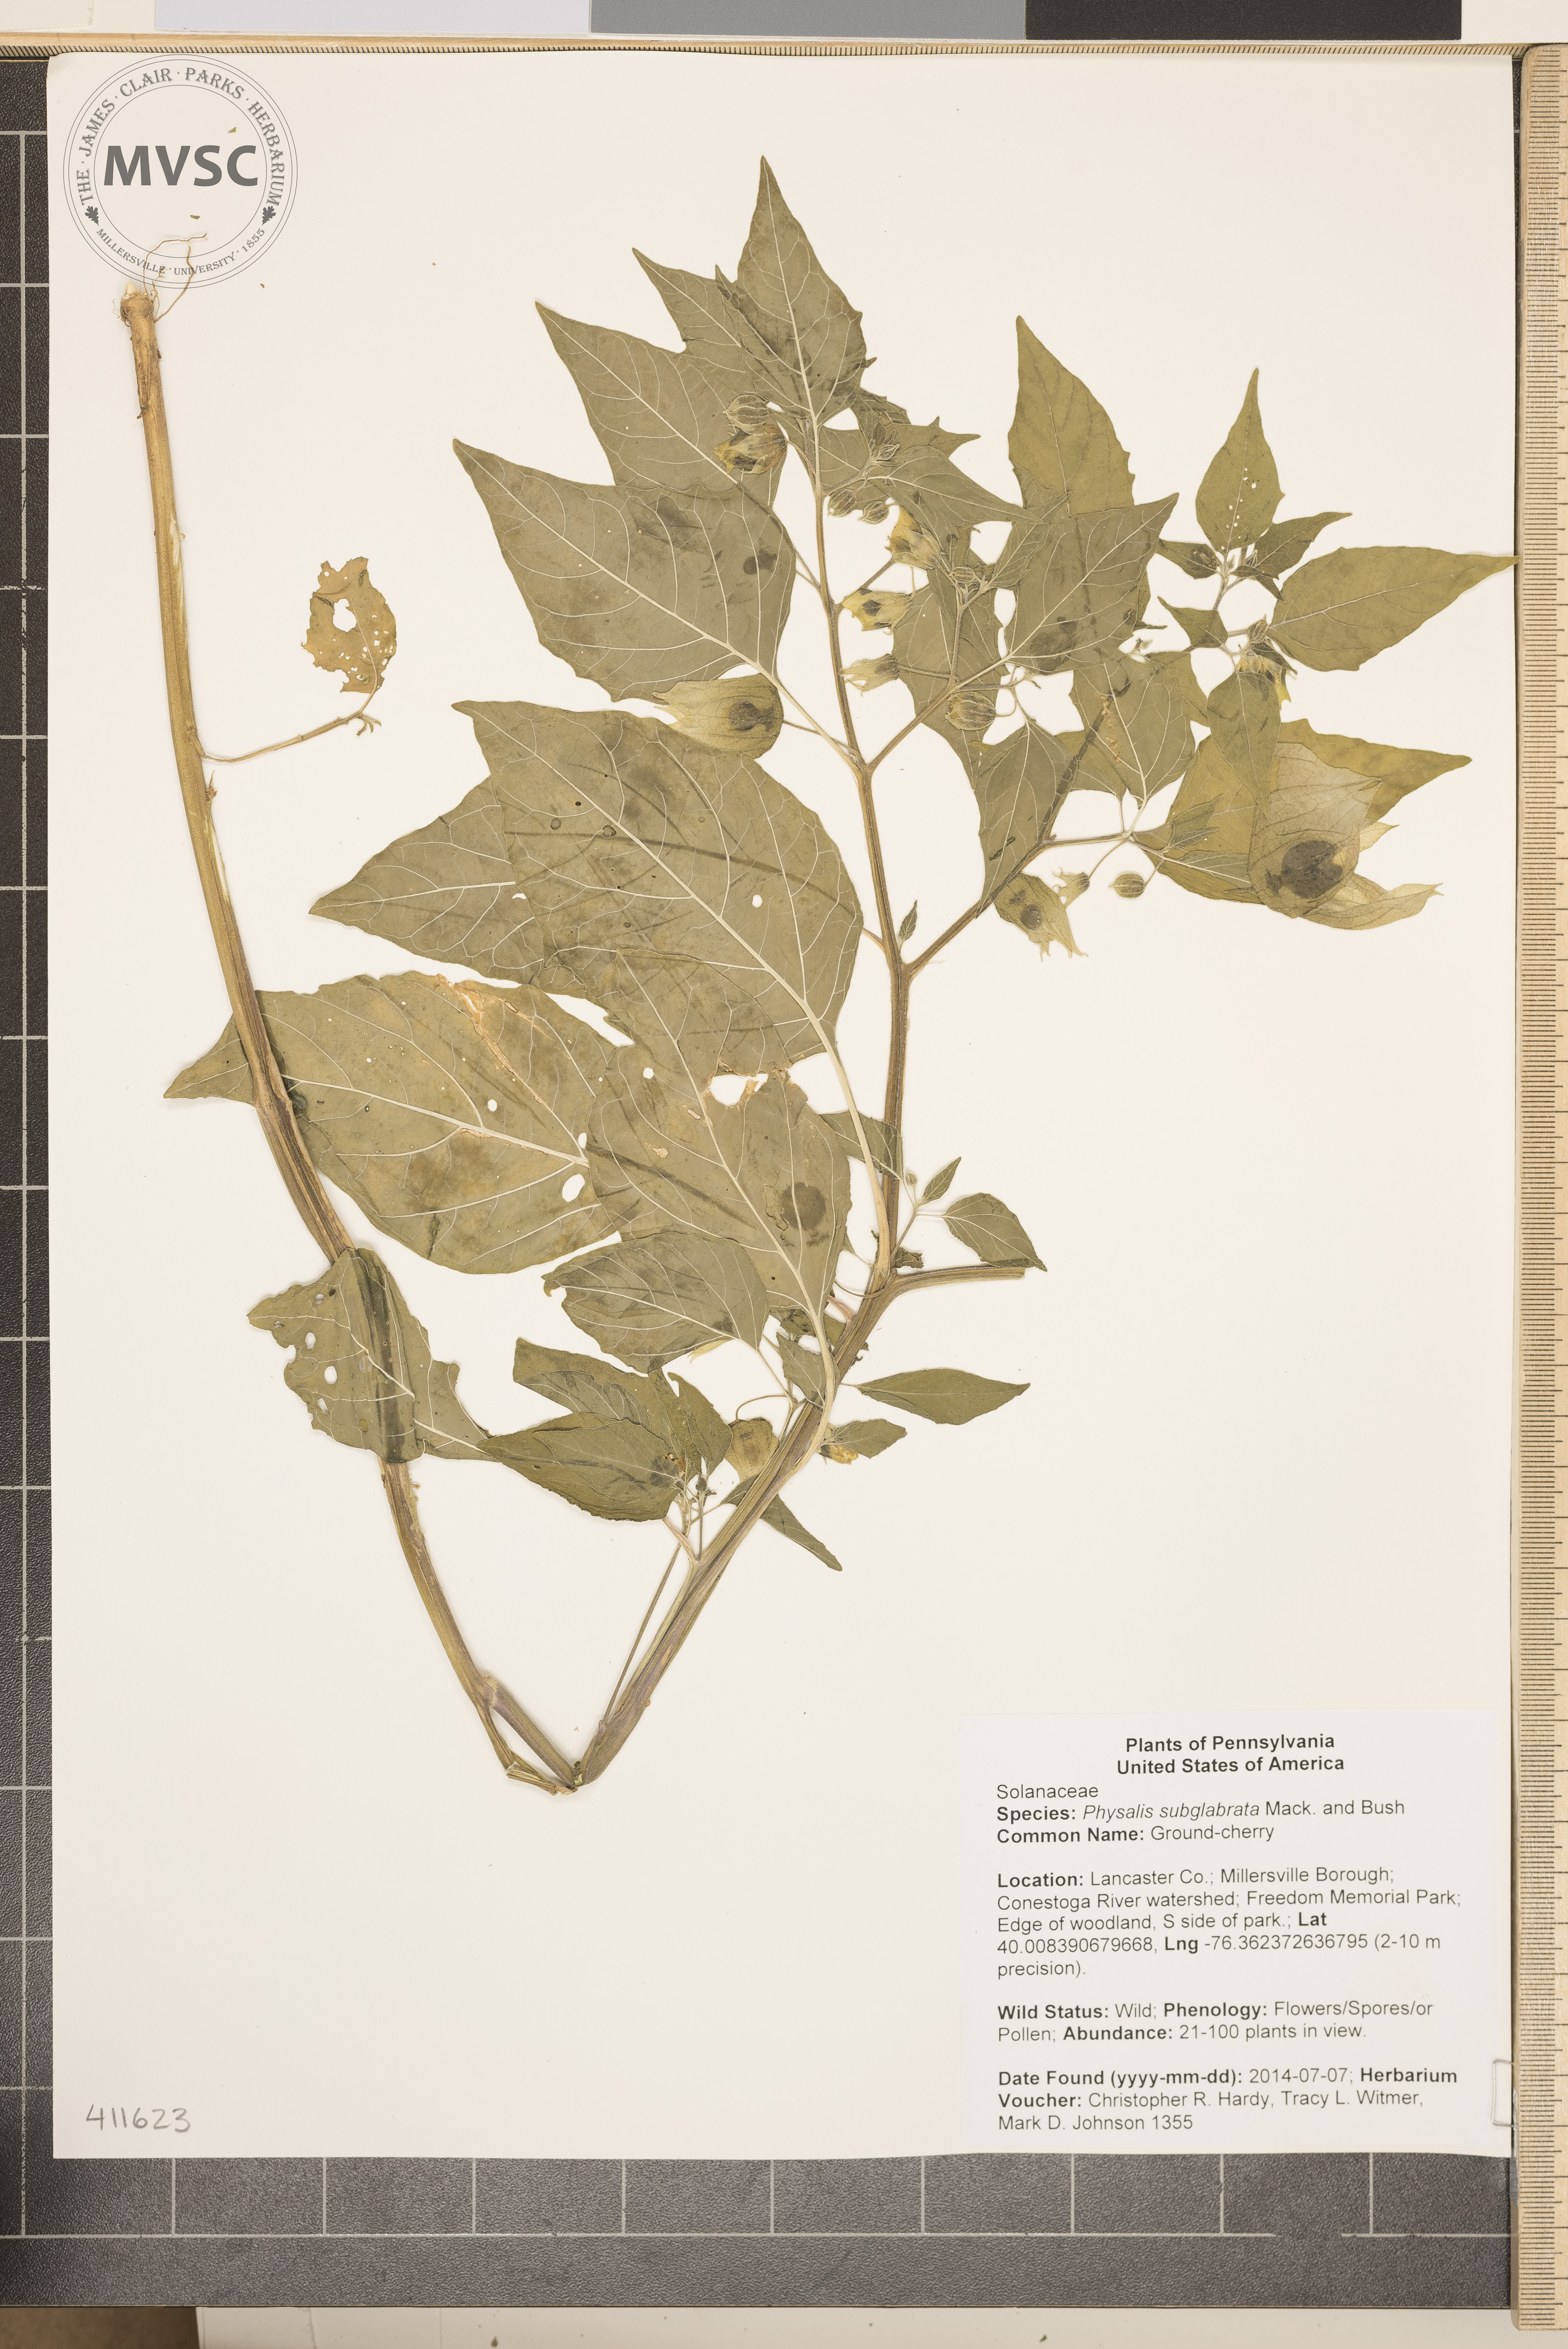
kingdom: Plantae
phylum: Tracheophyta
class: Magnoliopsida
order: Solanales
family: Solanaceae
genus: Physalis
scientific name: Physalis longifolia
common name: Ground-cherry
